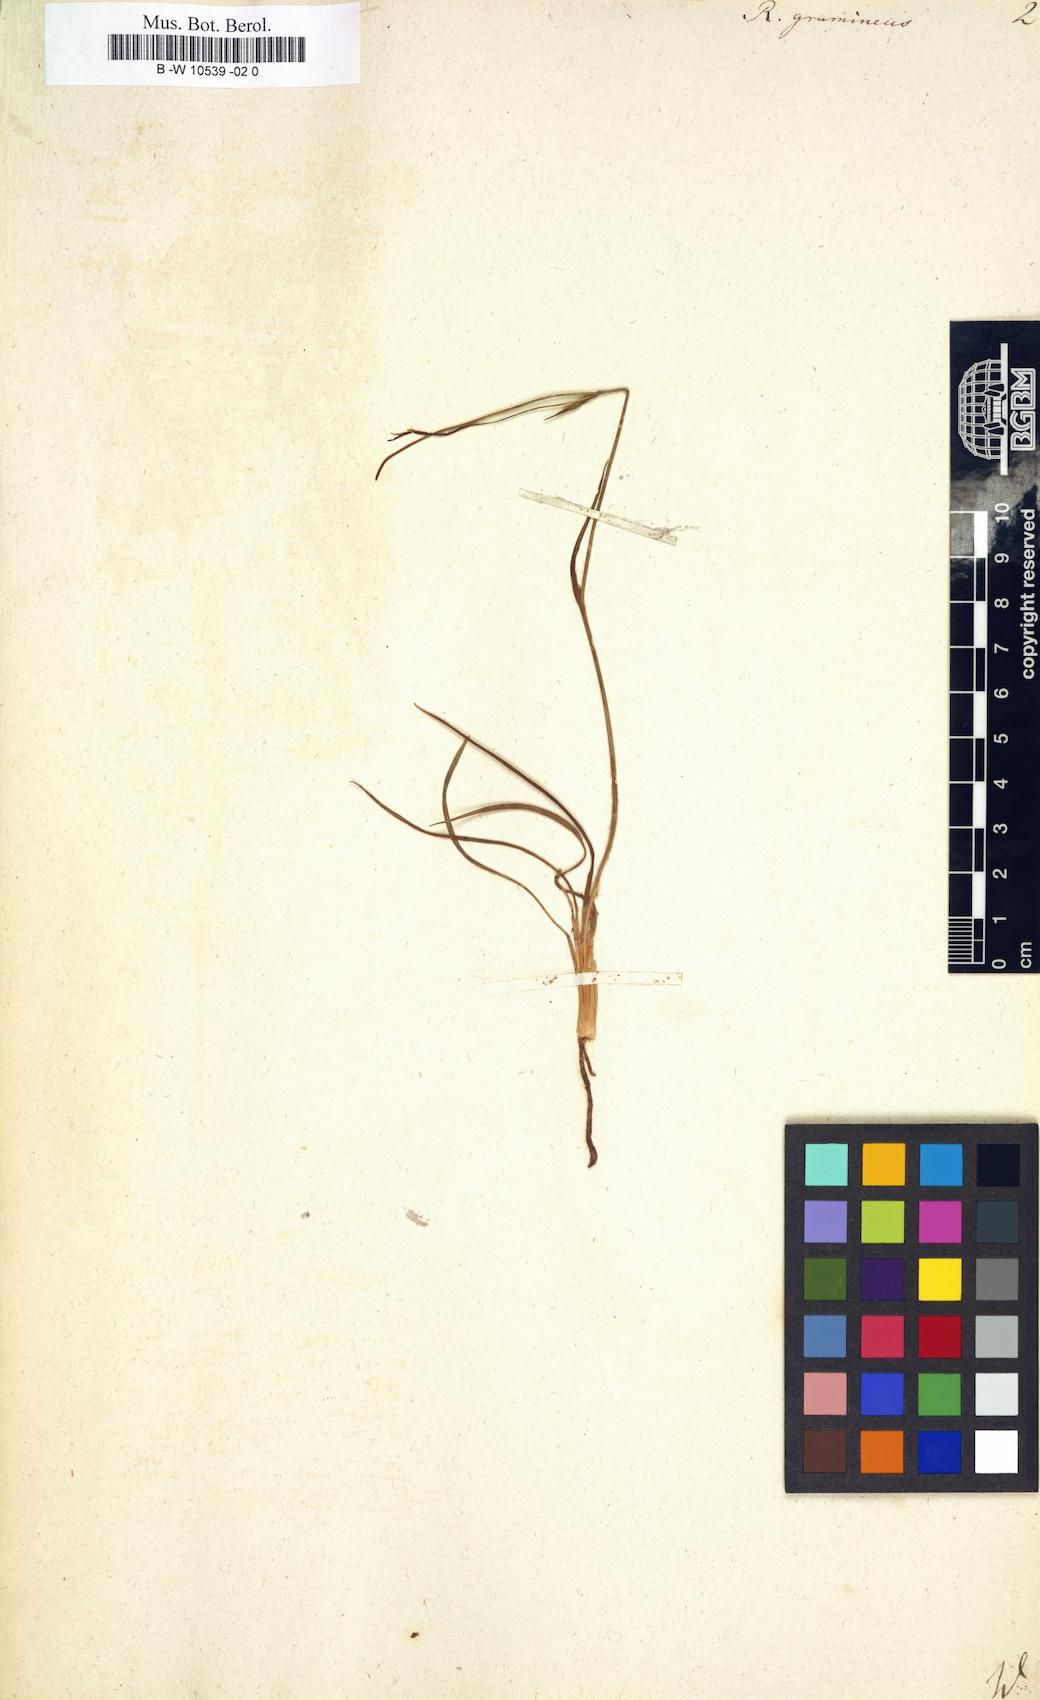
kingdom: Plantae
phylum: Tracheophyta
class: Magnoliopsida
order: Ranunculales
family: Ranunculaceae
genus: Ranunculus
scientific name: Ranunculus gramineus
